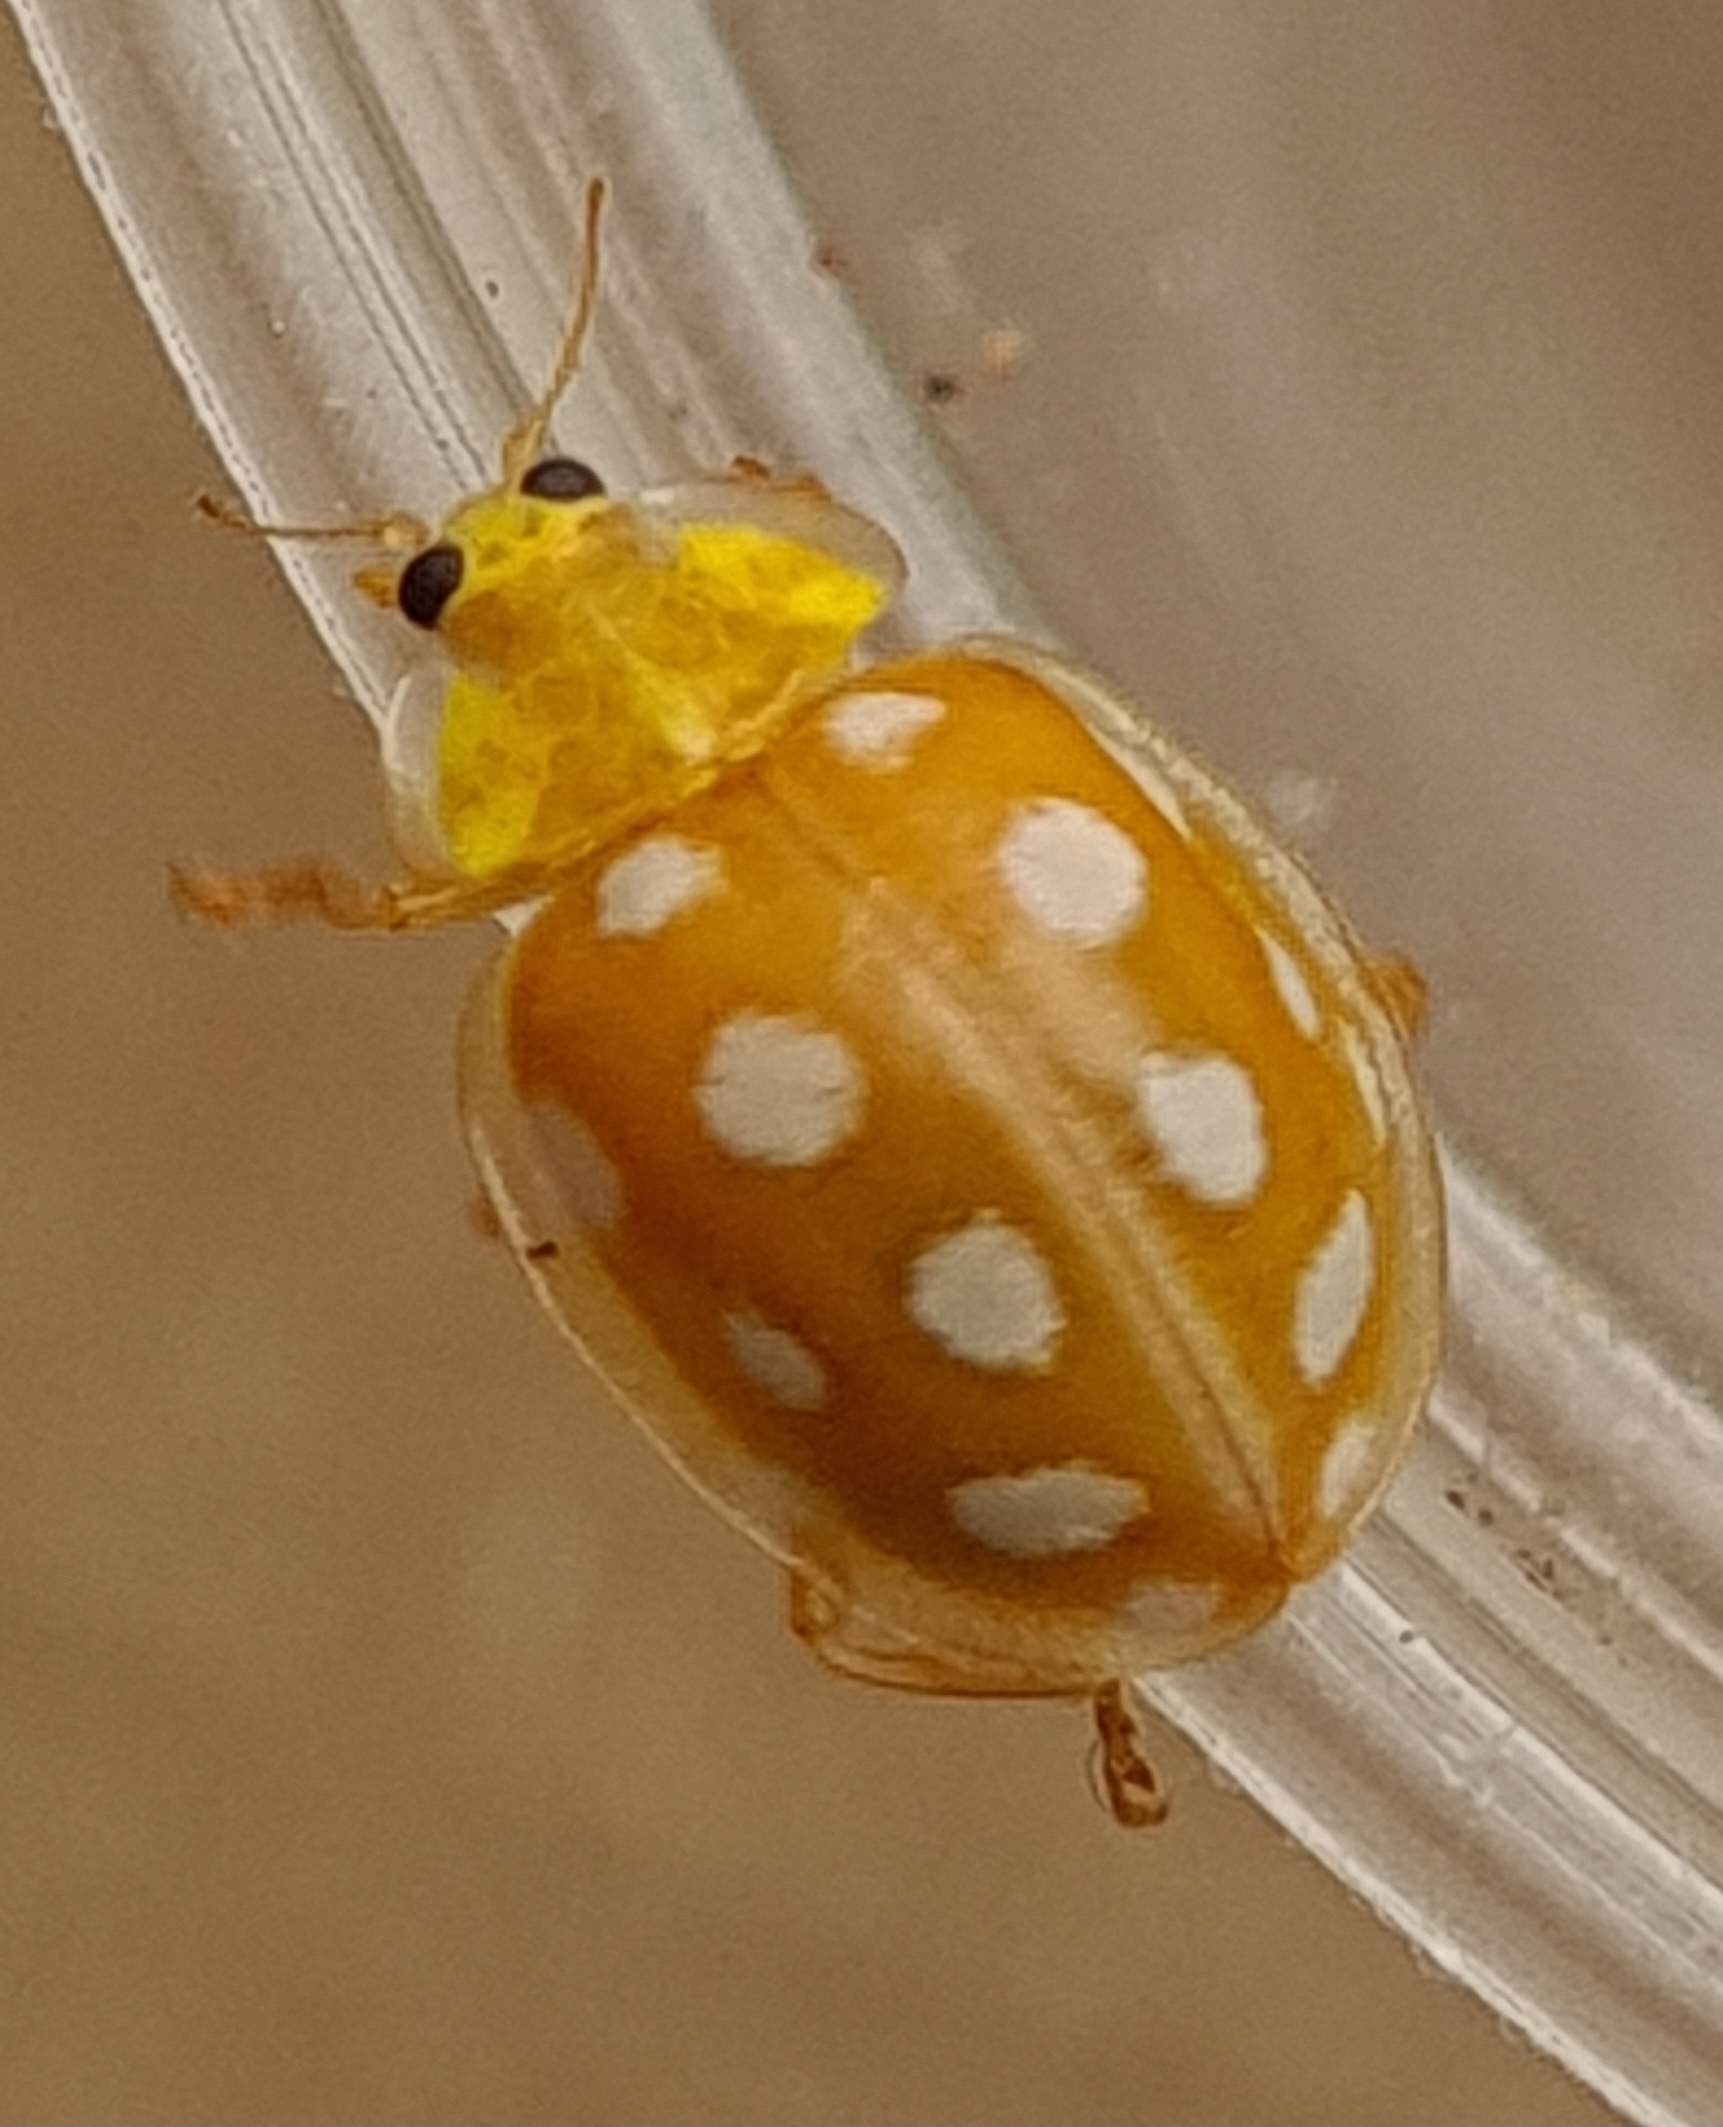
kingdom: Animalia
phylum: Arthropoda
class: Insecta
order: Coleoptera
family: Coccinellidae
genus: Halyzia
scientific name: Halyzia sedecimguttata
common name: Sekstenplettet mariehøne
